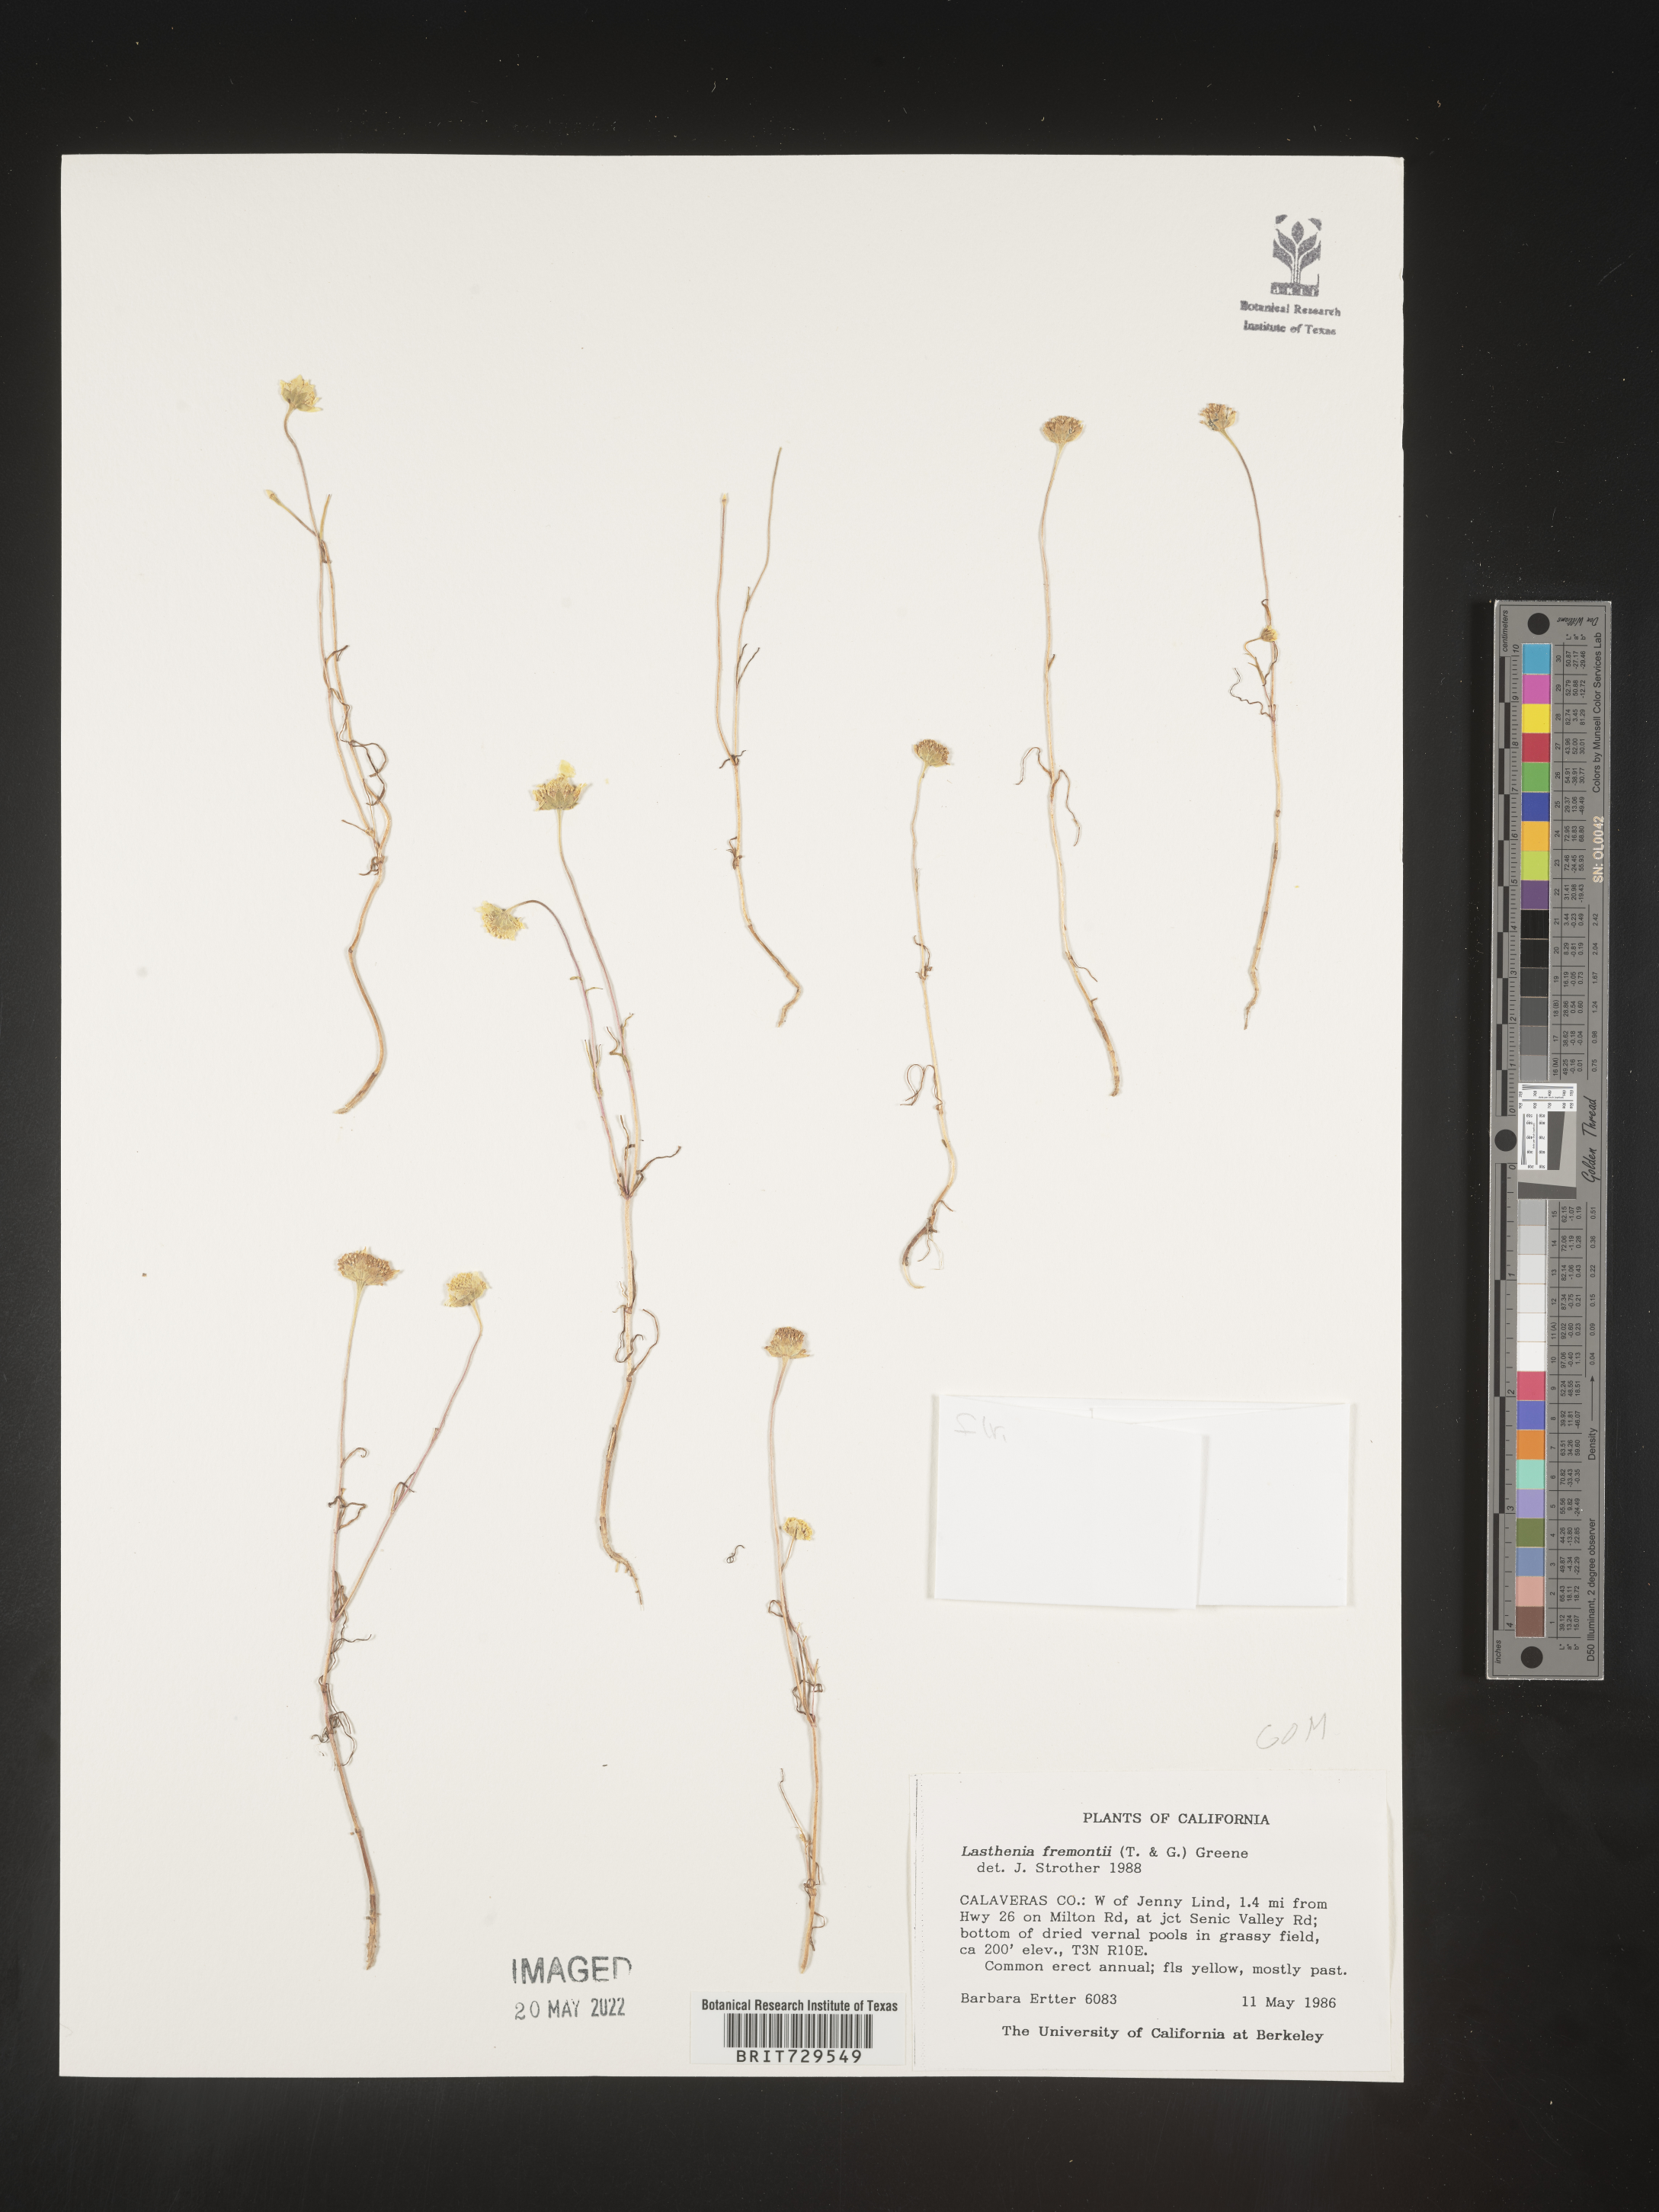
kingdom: Plantae
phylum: Tracheophyta
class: Magnoliopsida
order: Asterales
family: Asteraceae
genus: Lasthenia
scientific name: Lasthenia
